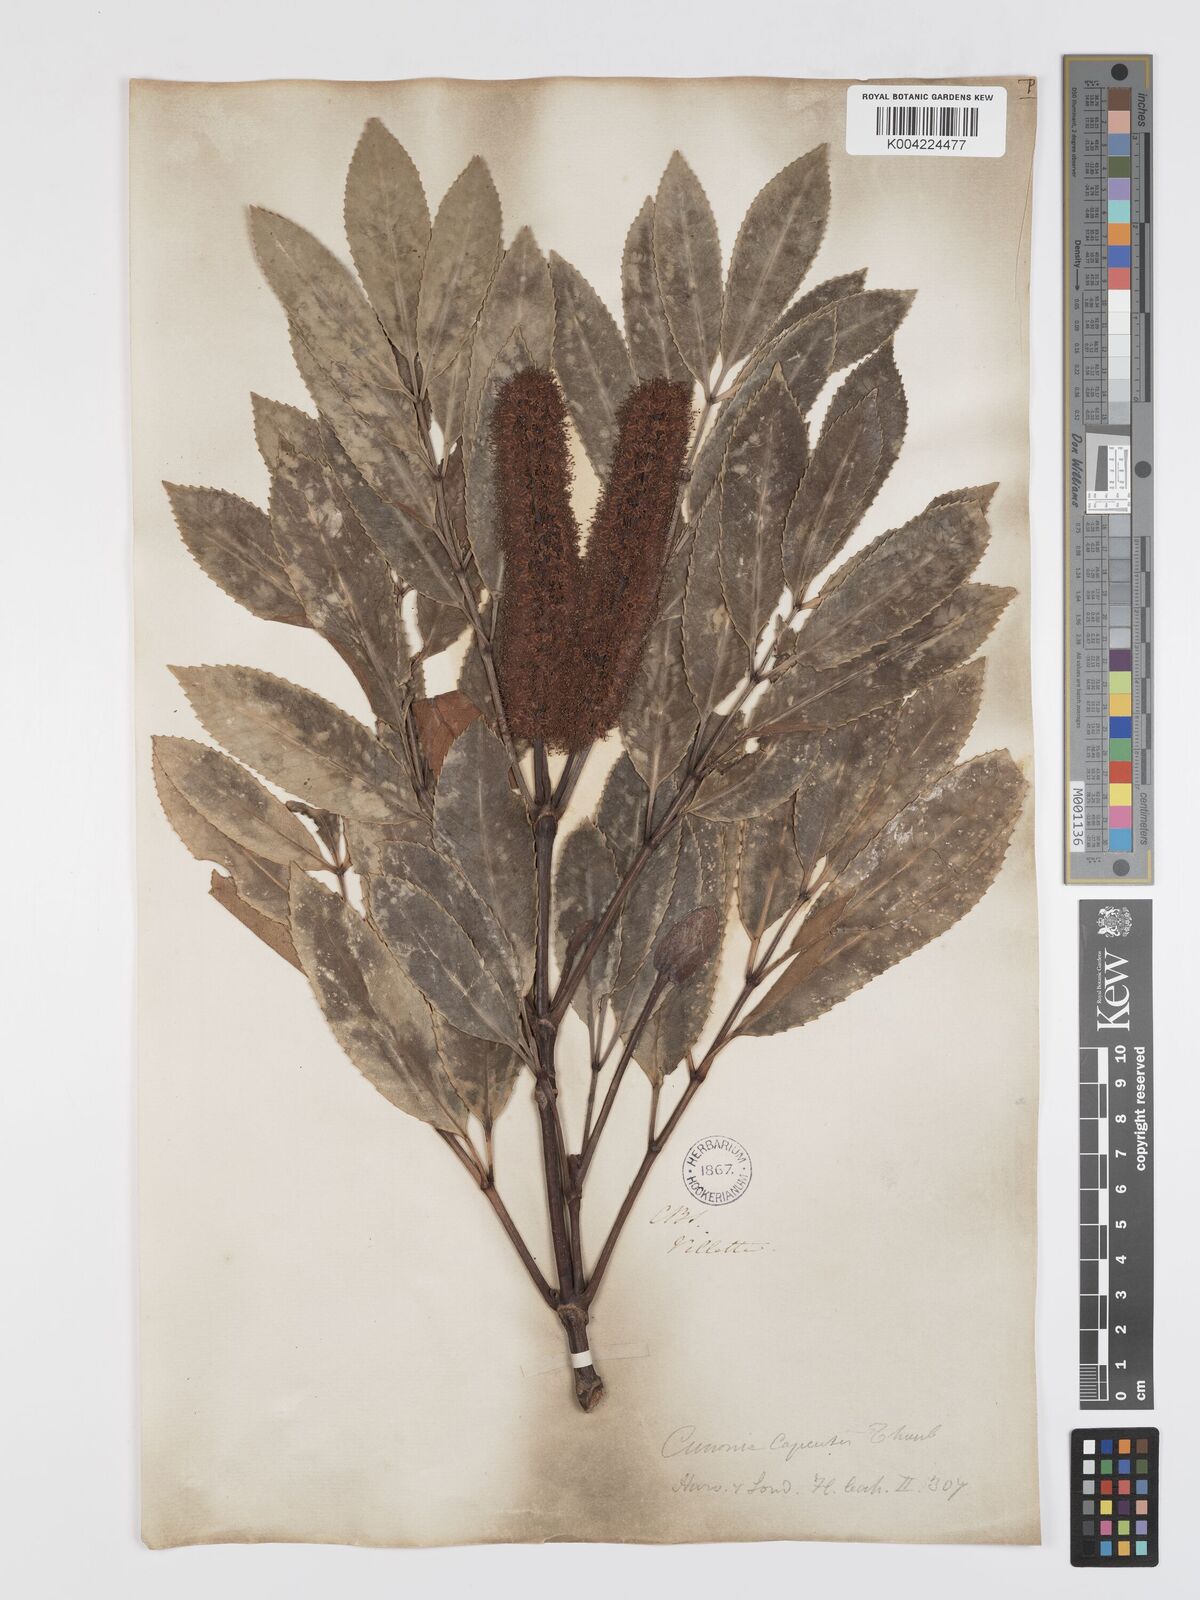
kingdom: Plantae
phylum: Tracheophyta
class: Magnoliopsida
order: Oxalidales
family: Cunoniaceae
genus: Cunonia
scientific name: Cunonia capensis
